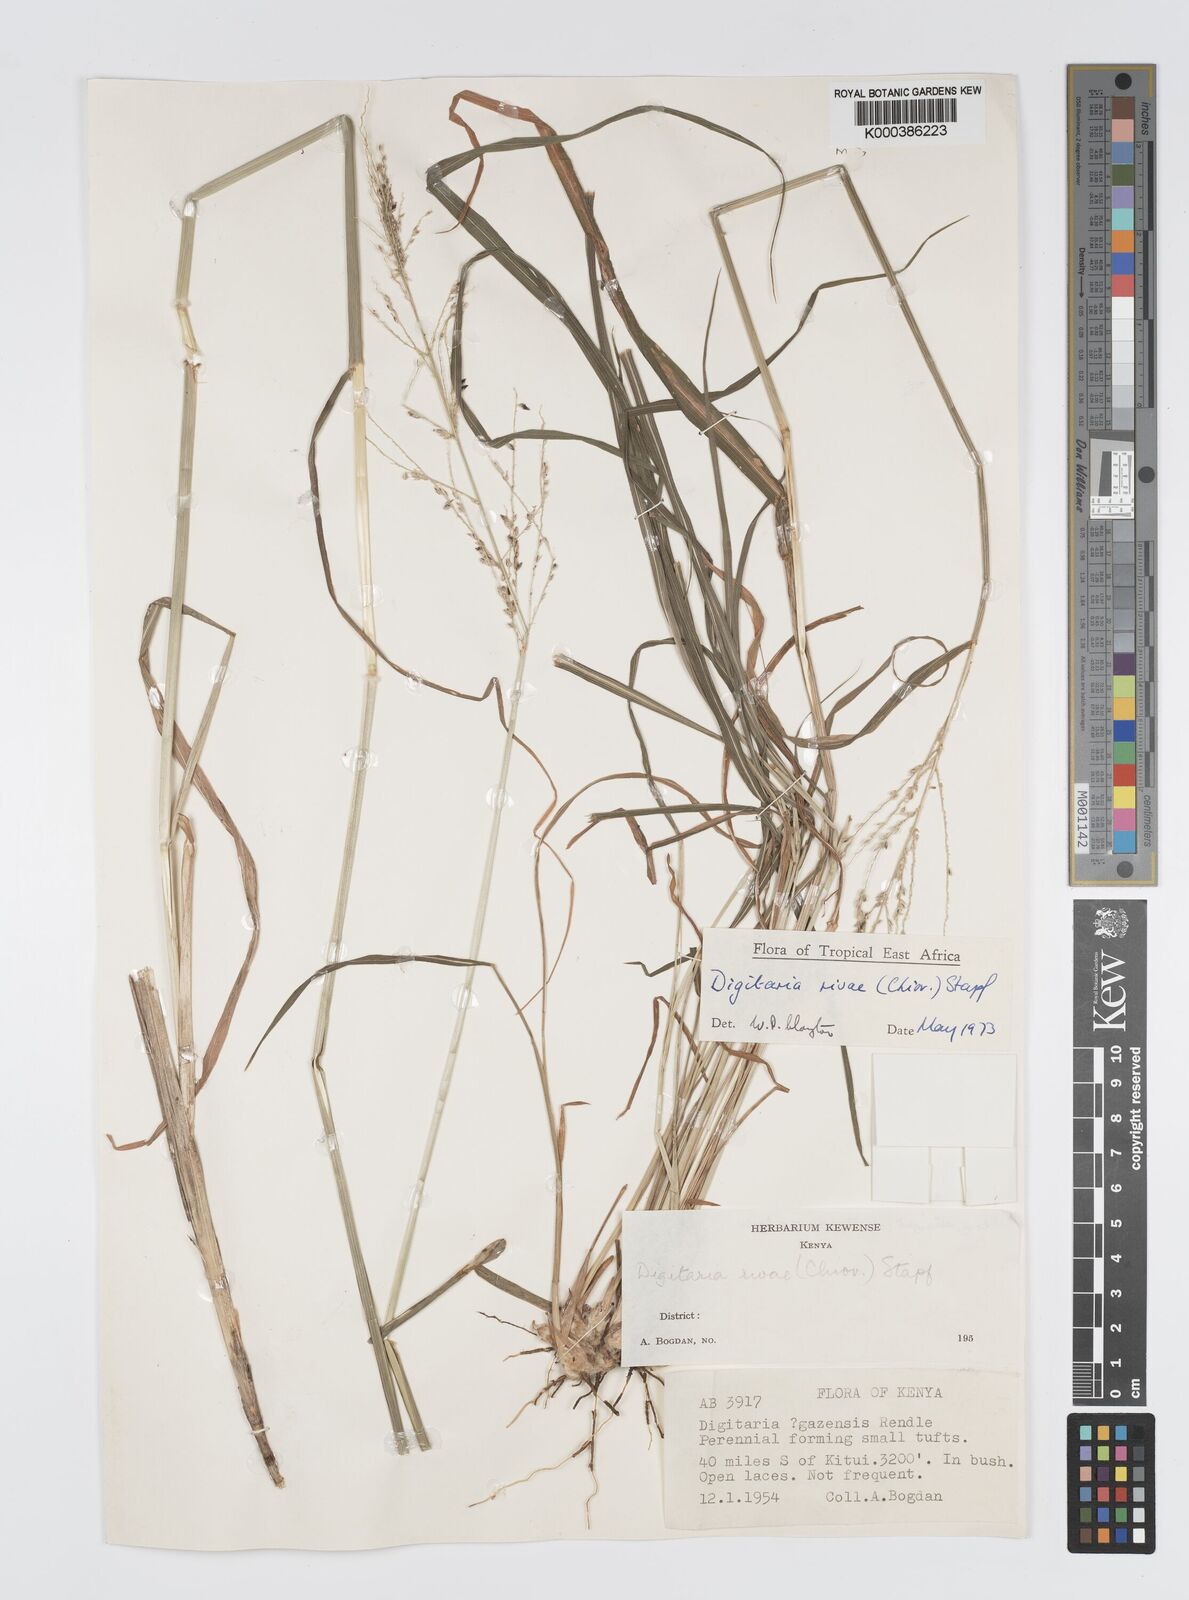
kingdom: Plantae
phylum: Tracheophyta
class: Liliopsida
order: Poales
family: Poaceae
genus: Digitaria
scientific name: Digitaria rivae
